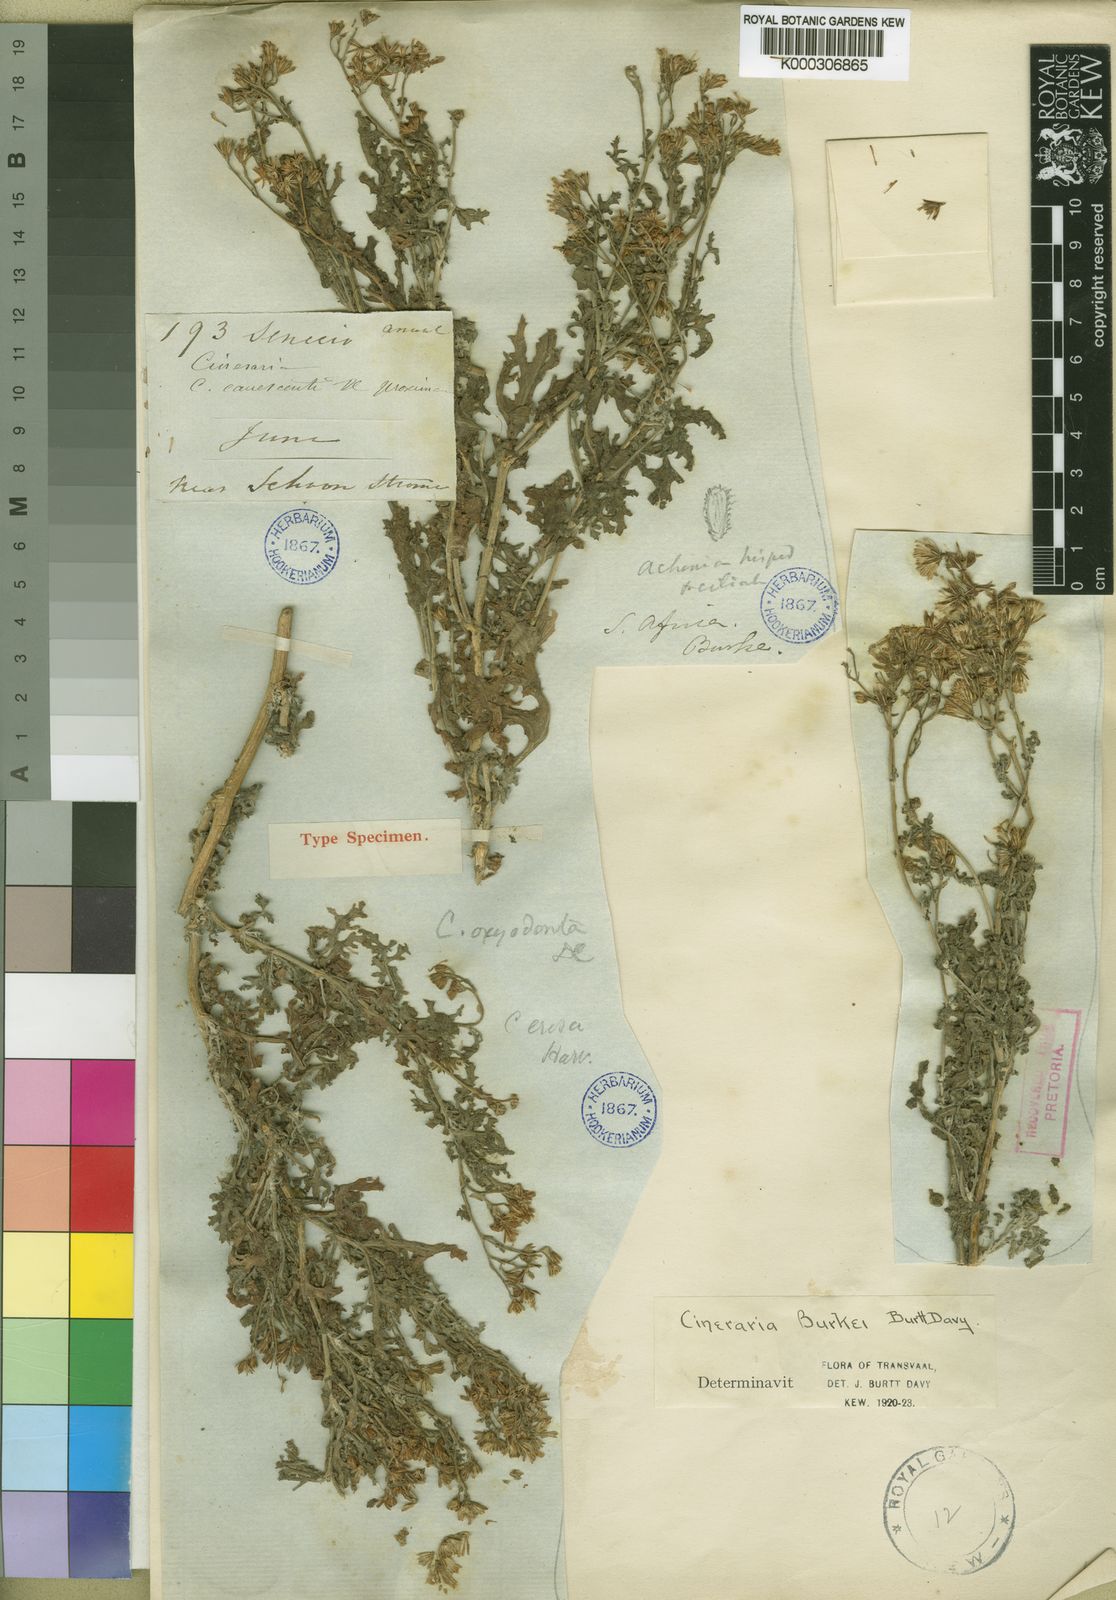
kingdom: Plantae
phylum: Tracheophyta
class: Magnoliopsida
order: Asterales
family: Asteraceae
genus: Cineraria
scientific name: Cineraria burkei
